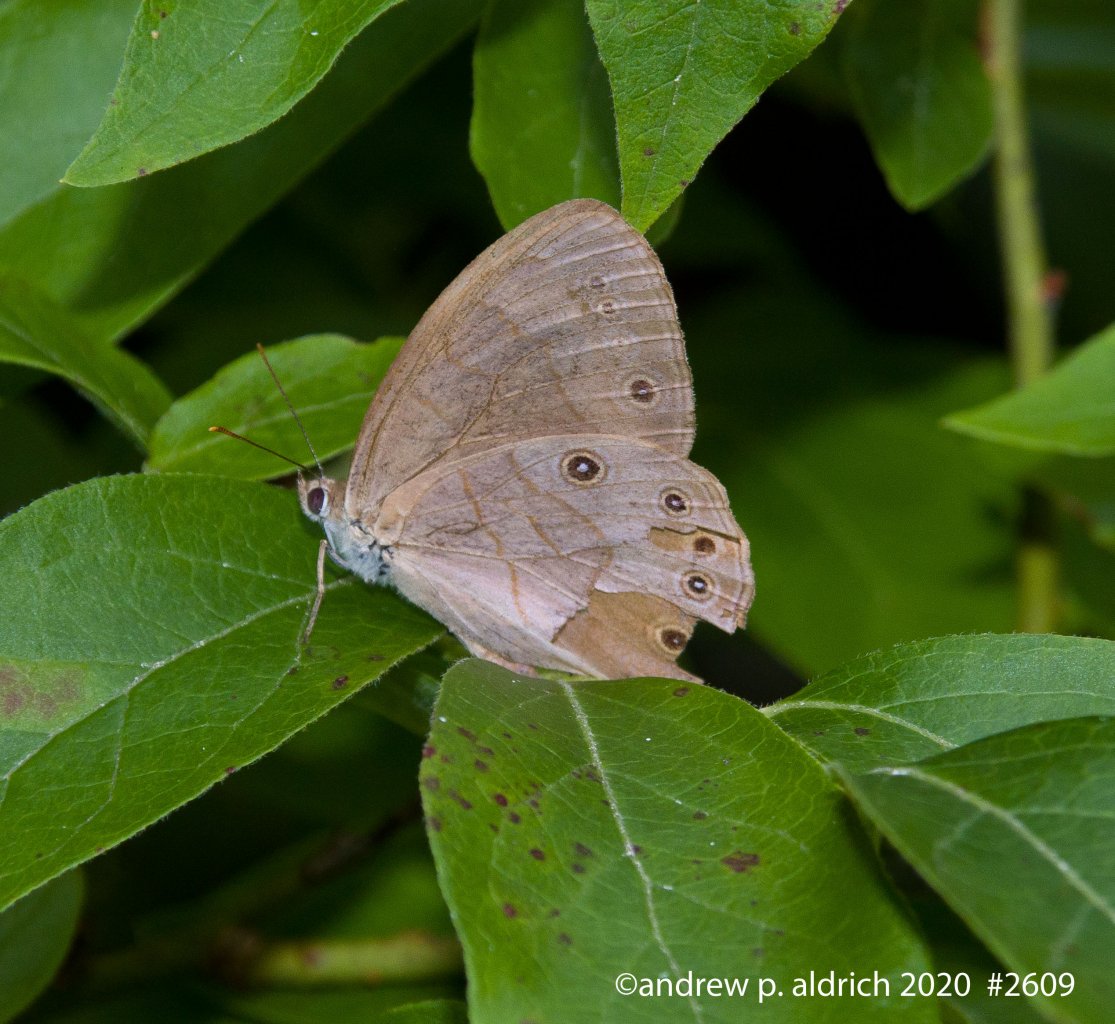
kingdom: Animalia
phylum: Arthropoda
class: Insecta
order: Lepidoptera
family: Nymphalidae
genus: Lethe
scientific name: Lethe eurydice
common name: Appalachian Eyed Brown
